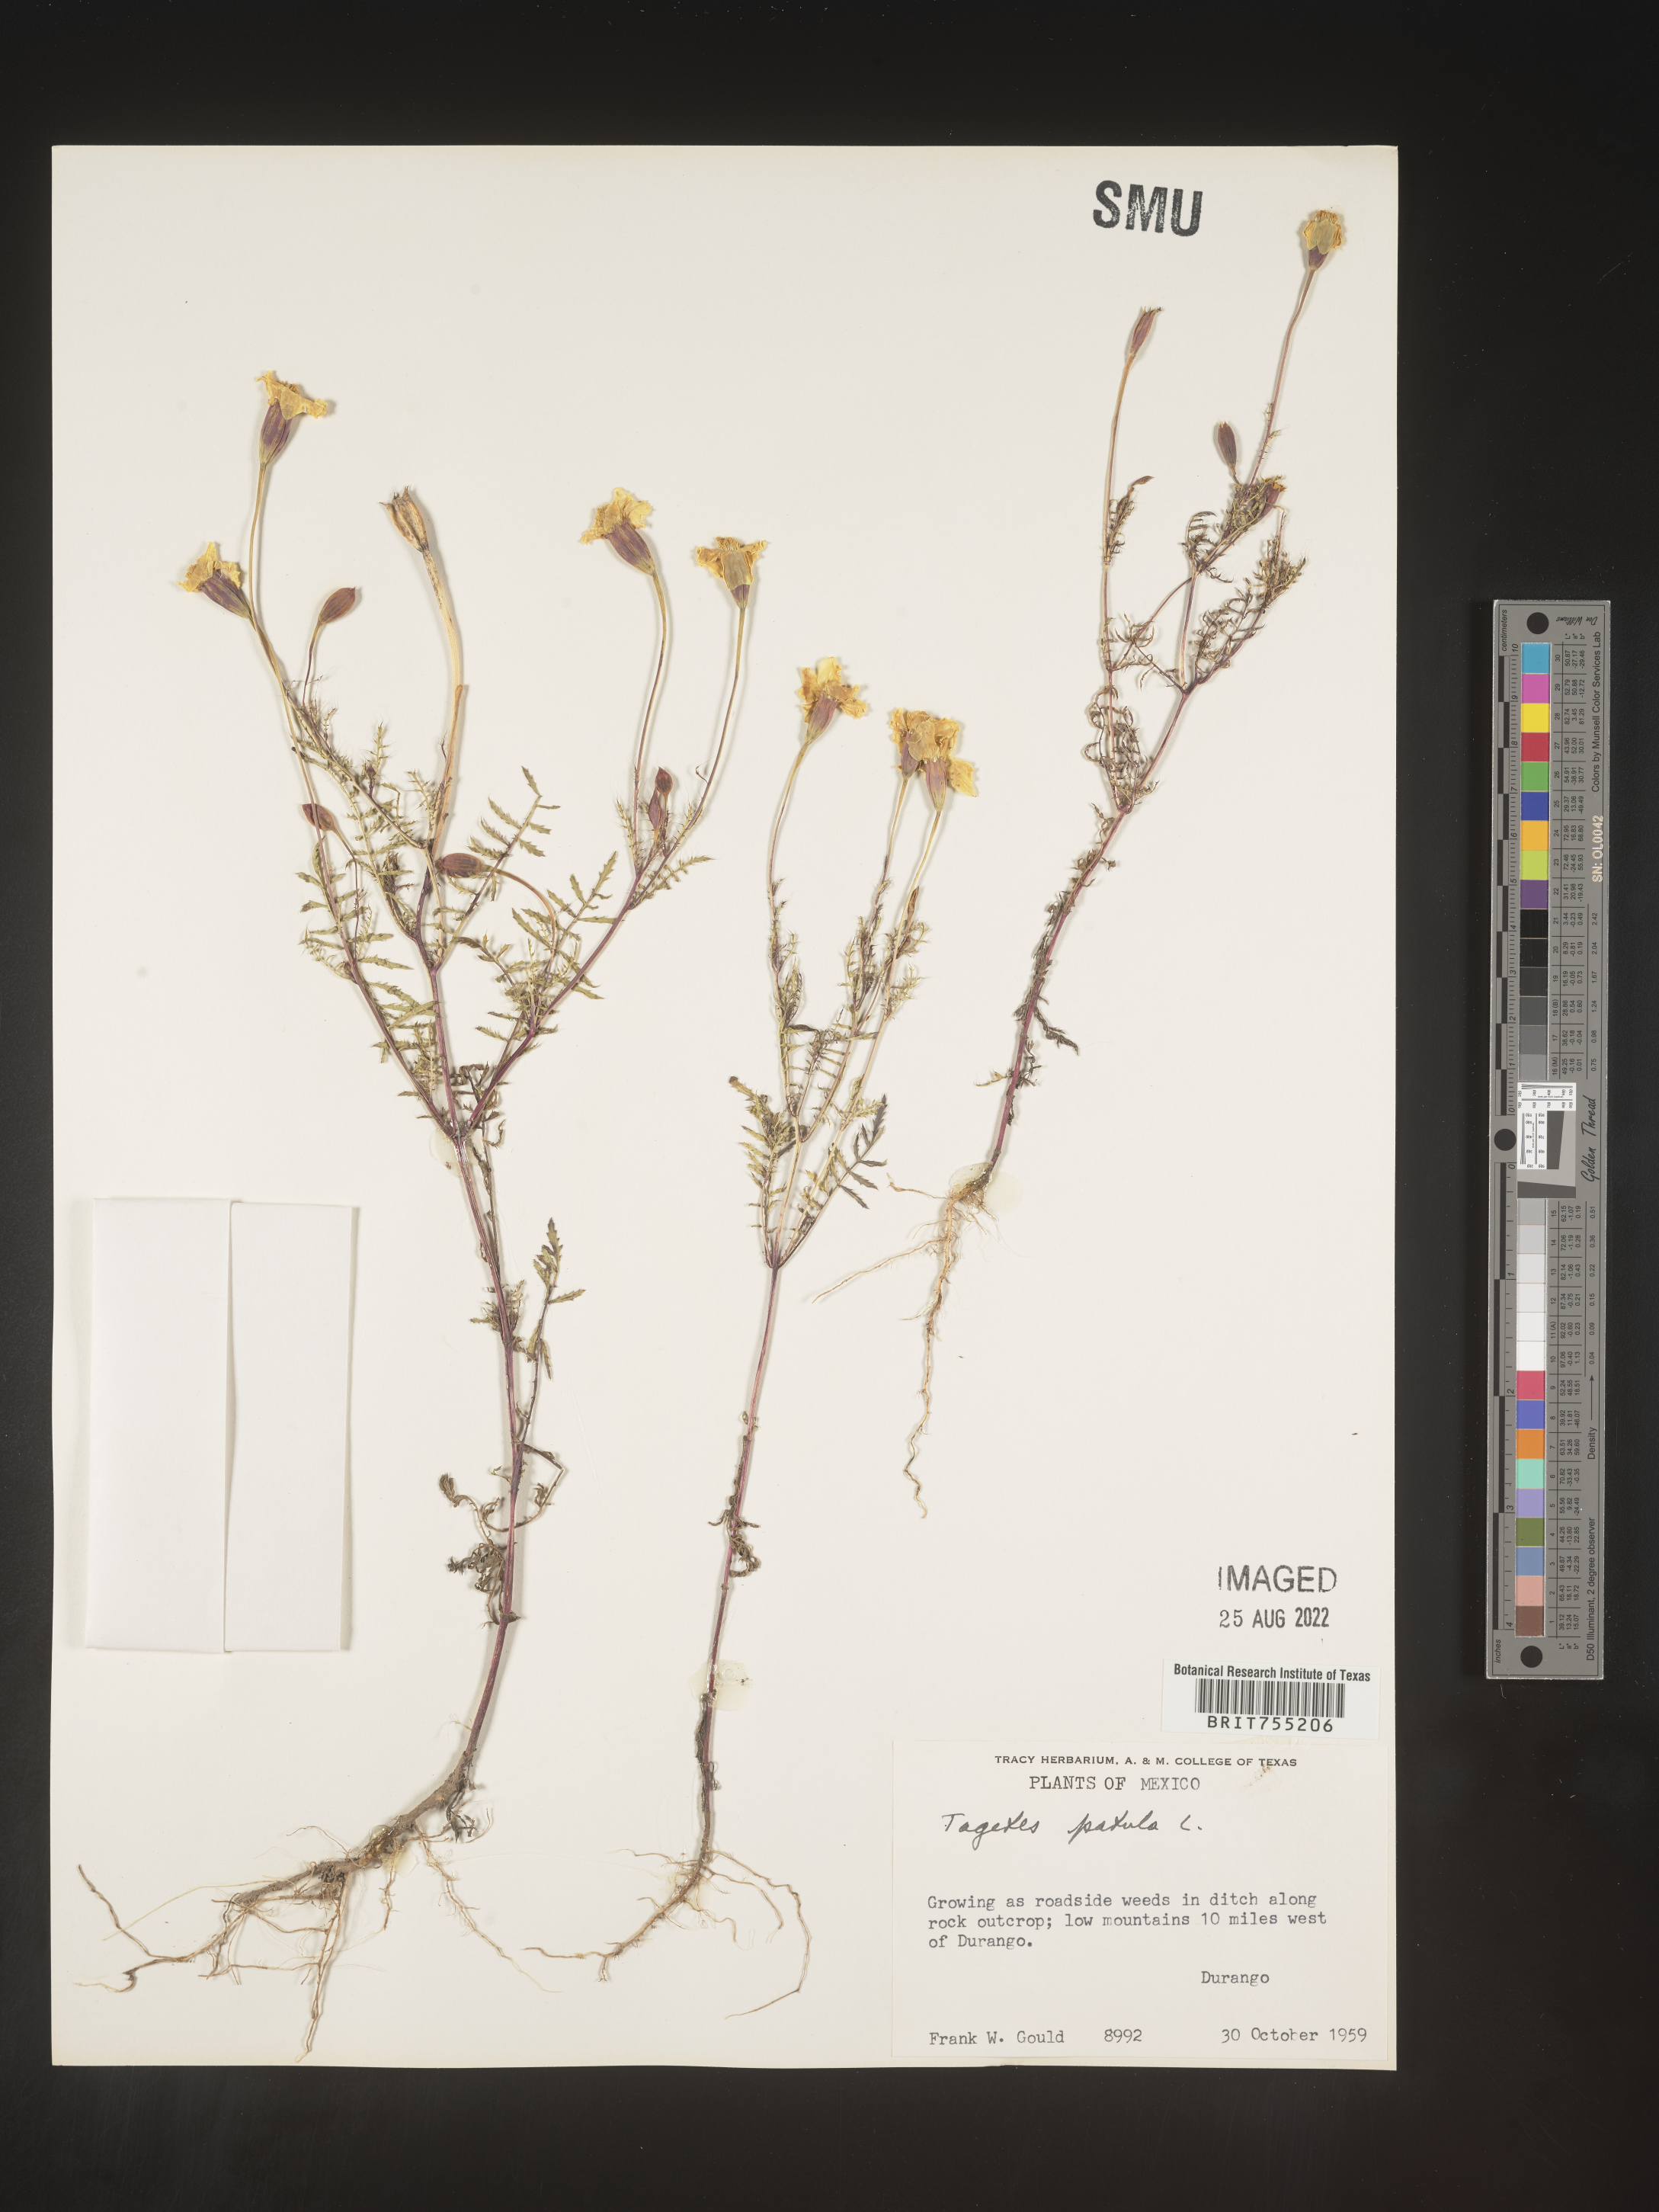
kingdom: Plantae
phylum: Tracheophyta
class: Magnoliopsida
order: Asterales
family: Asteraceae
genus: Tagetes
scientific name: Tagetes
